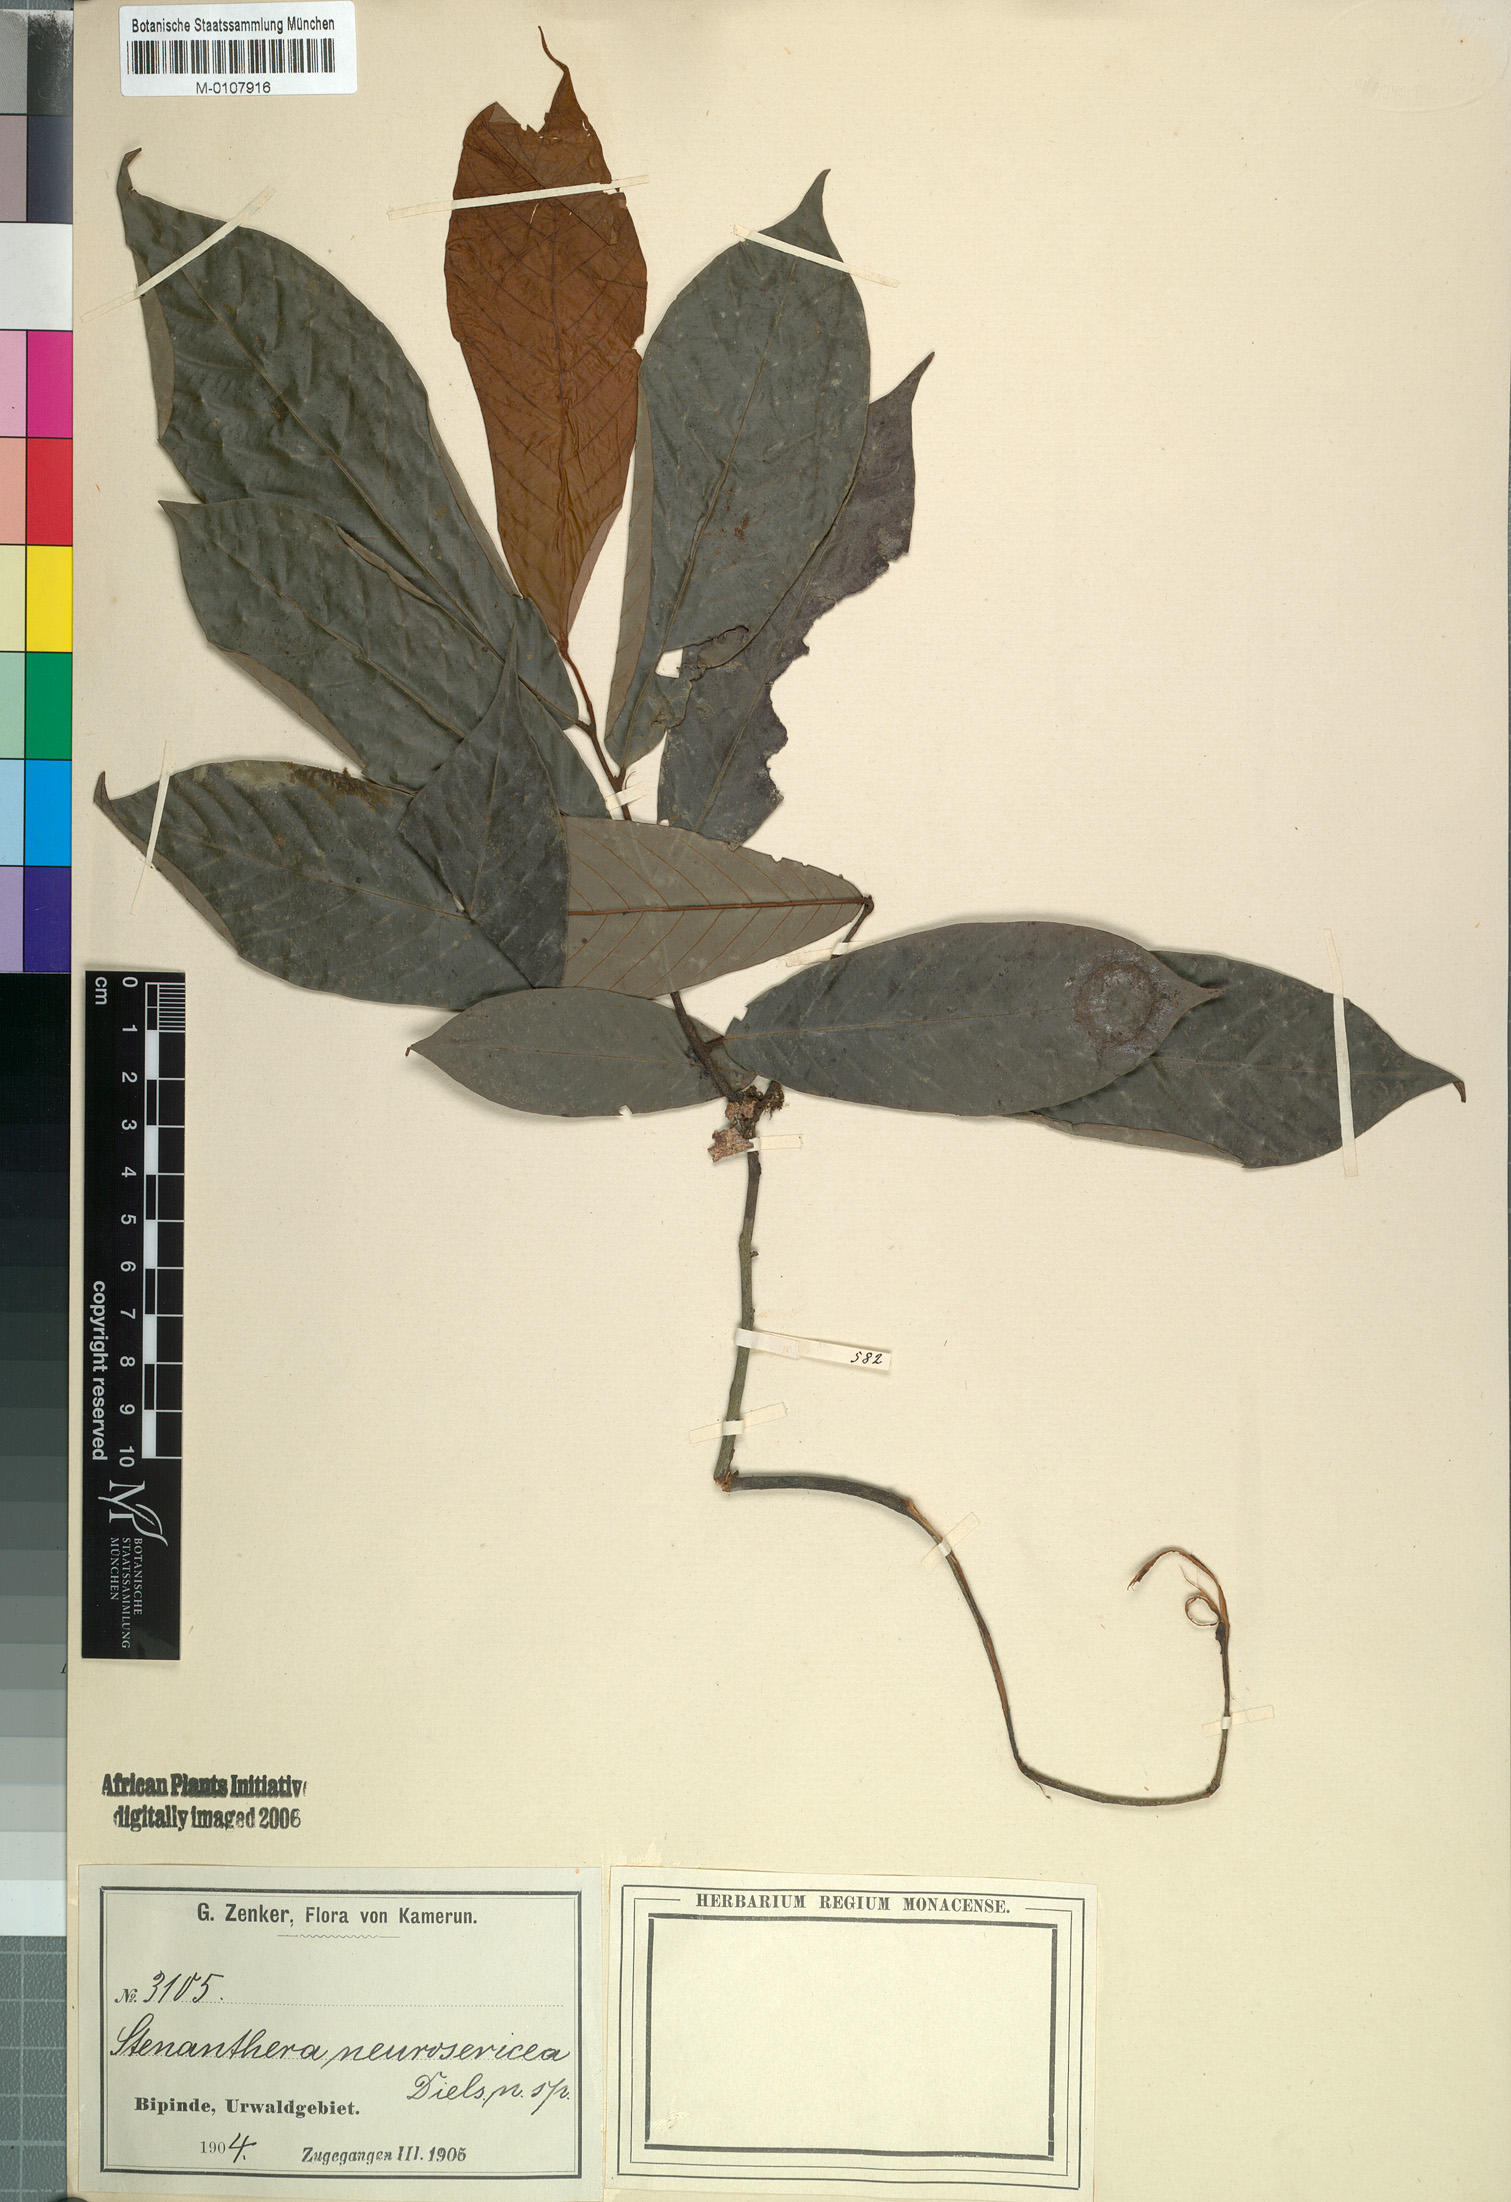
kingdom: Plantae
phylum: Tracheophyta
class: Magnoliopsida
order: Magnoliales
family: Annonaceae
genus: Neostenanthera
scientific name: Neostenanthera neurosericea
